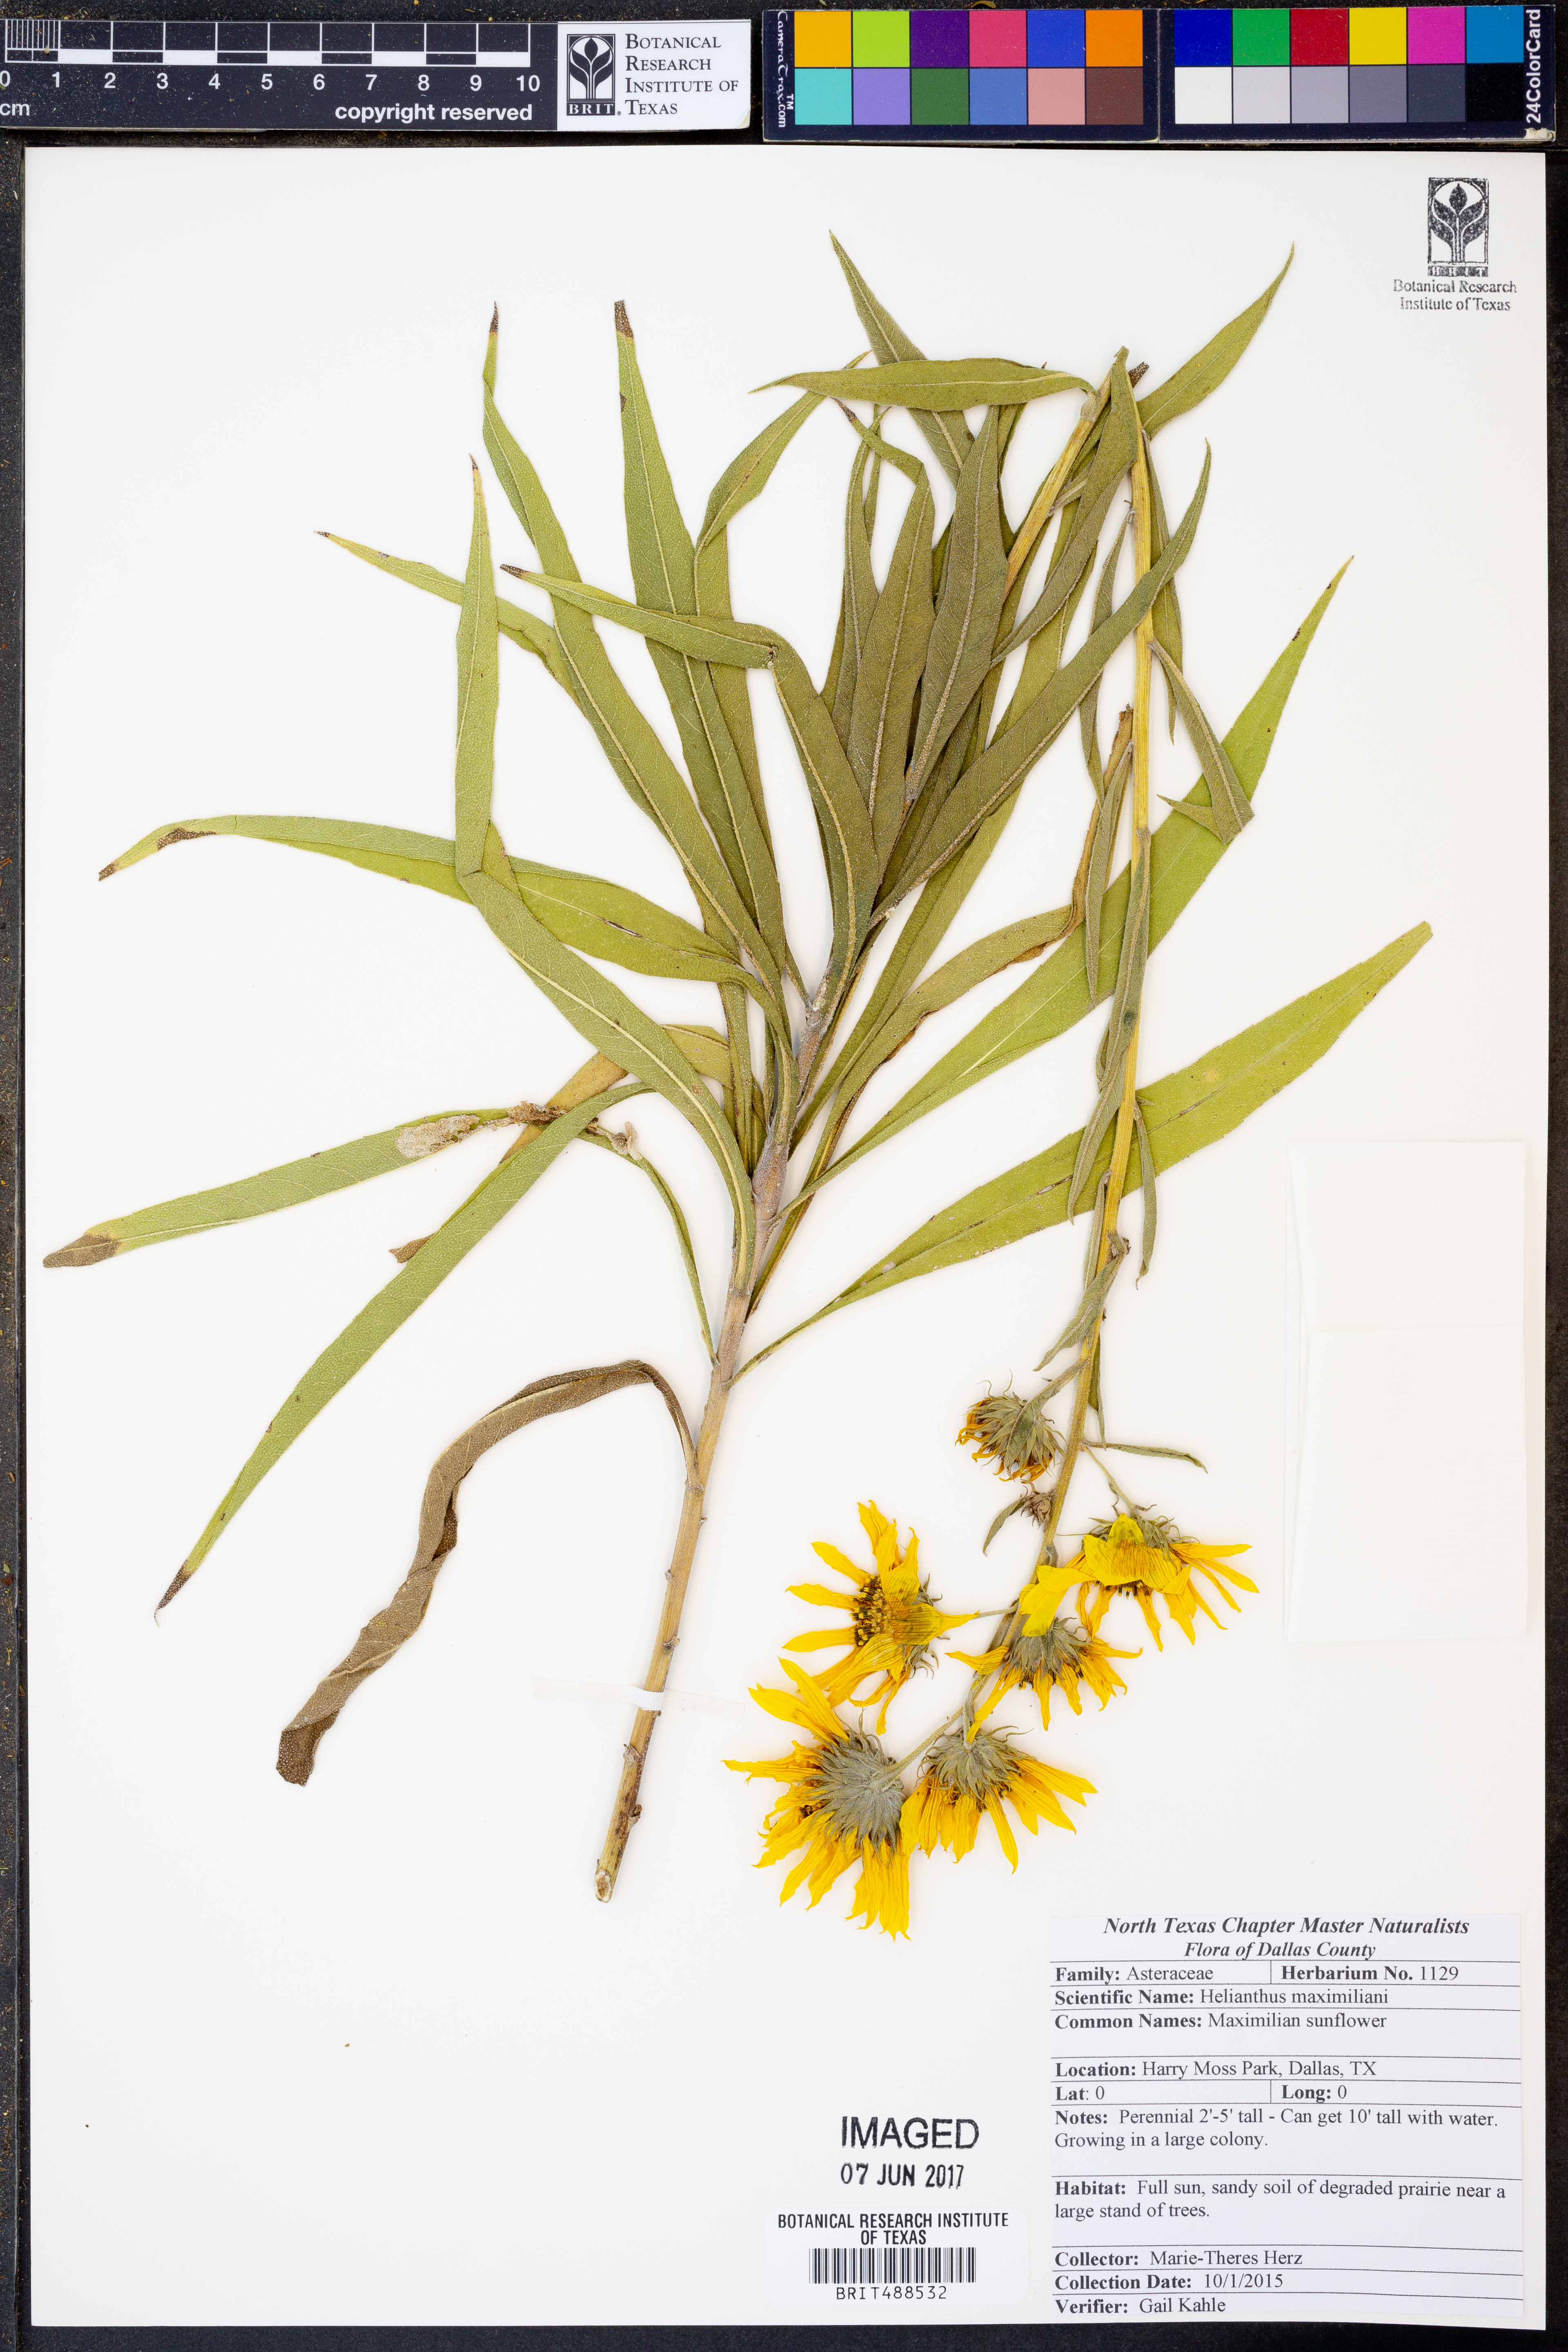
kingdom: Plantae
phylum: Tracheophyta
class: Magnoliopsida
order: Asterales
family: Asteraceae
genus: Helianthus
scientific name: Helianthus maximiliani
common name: Maximilian's sunflower
